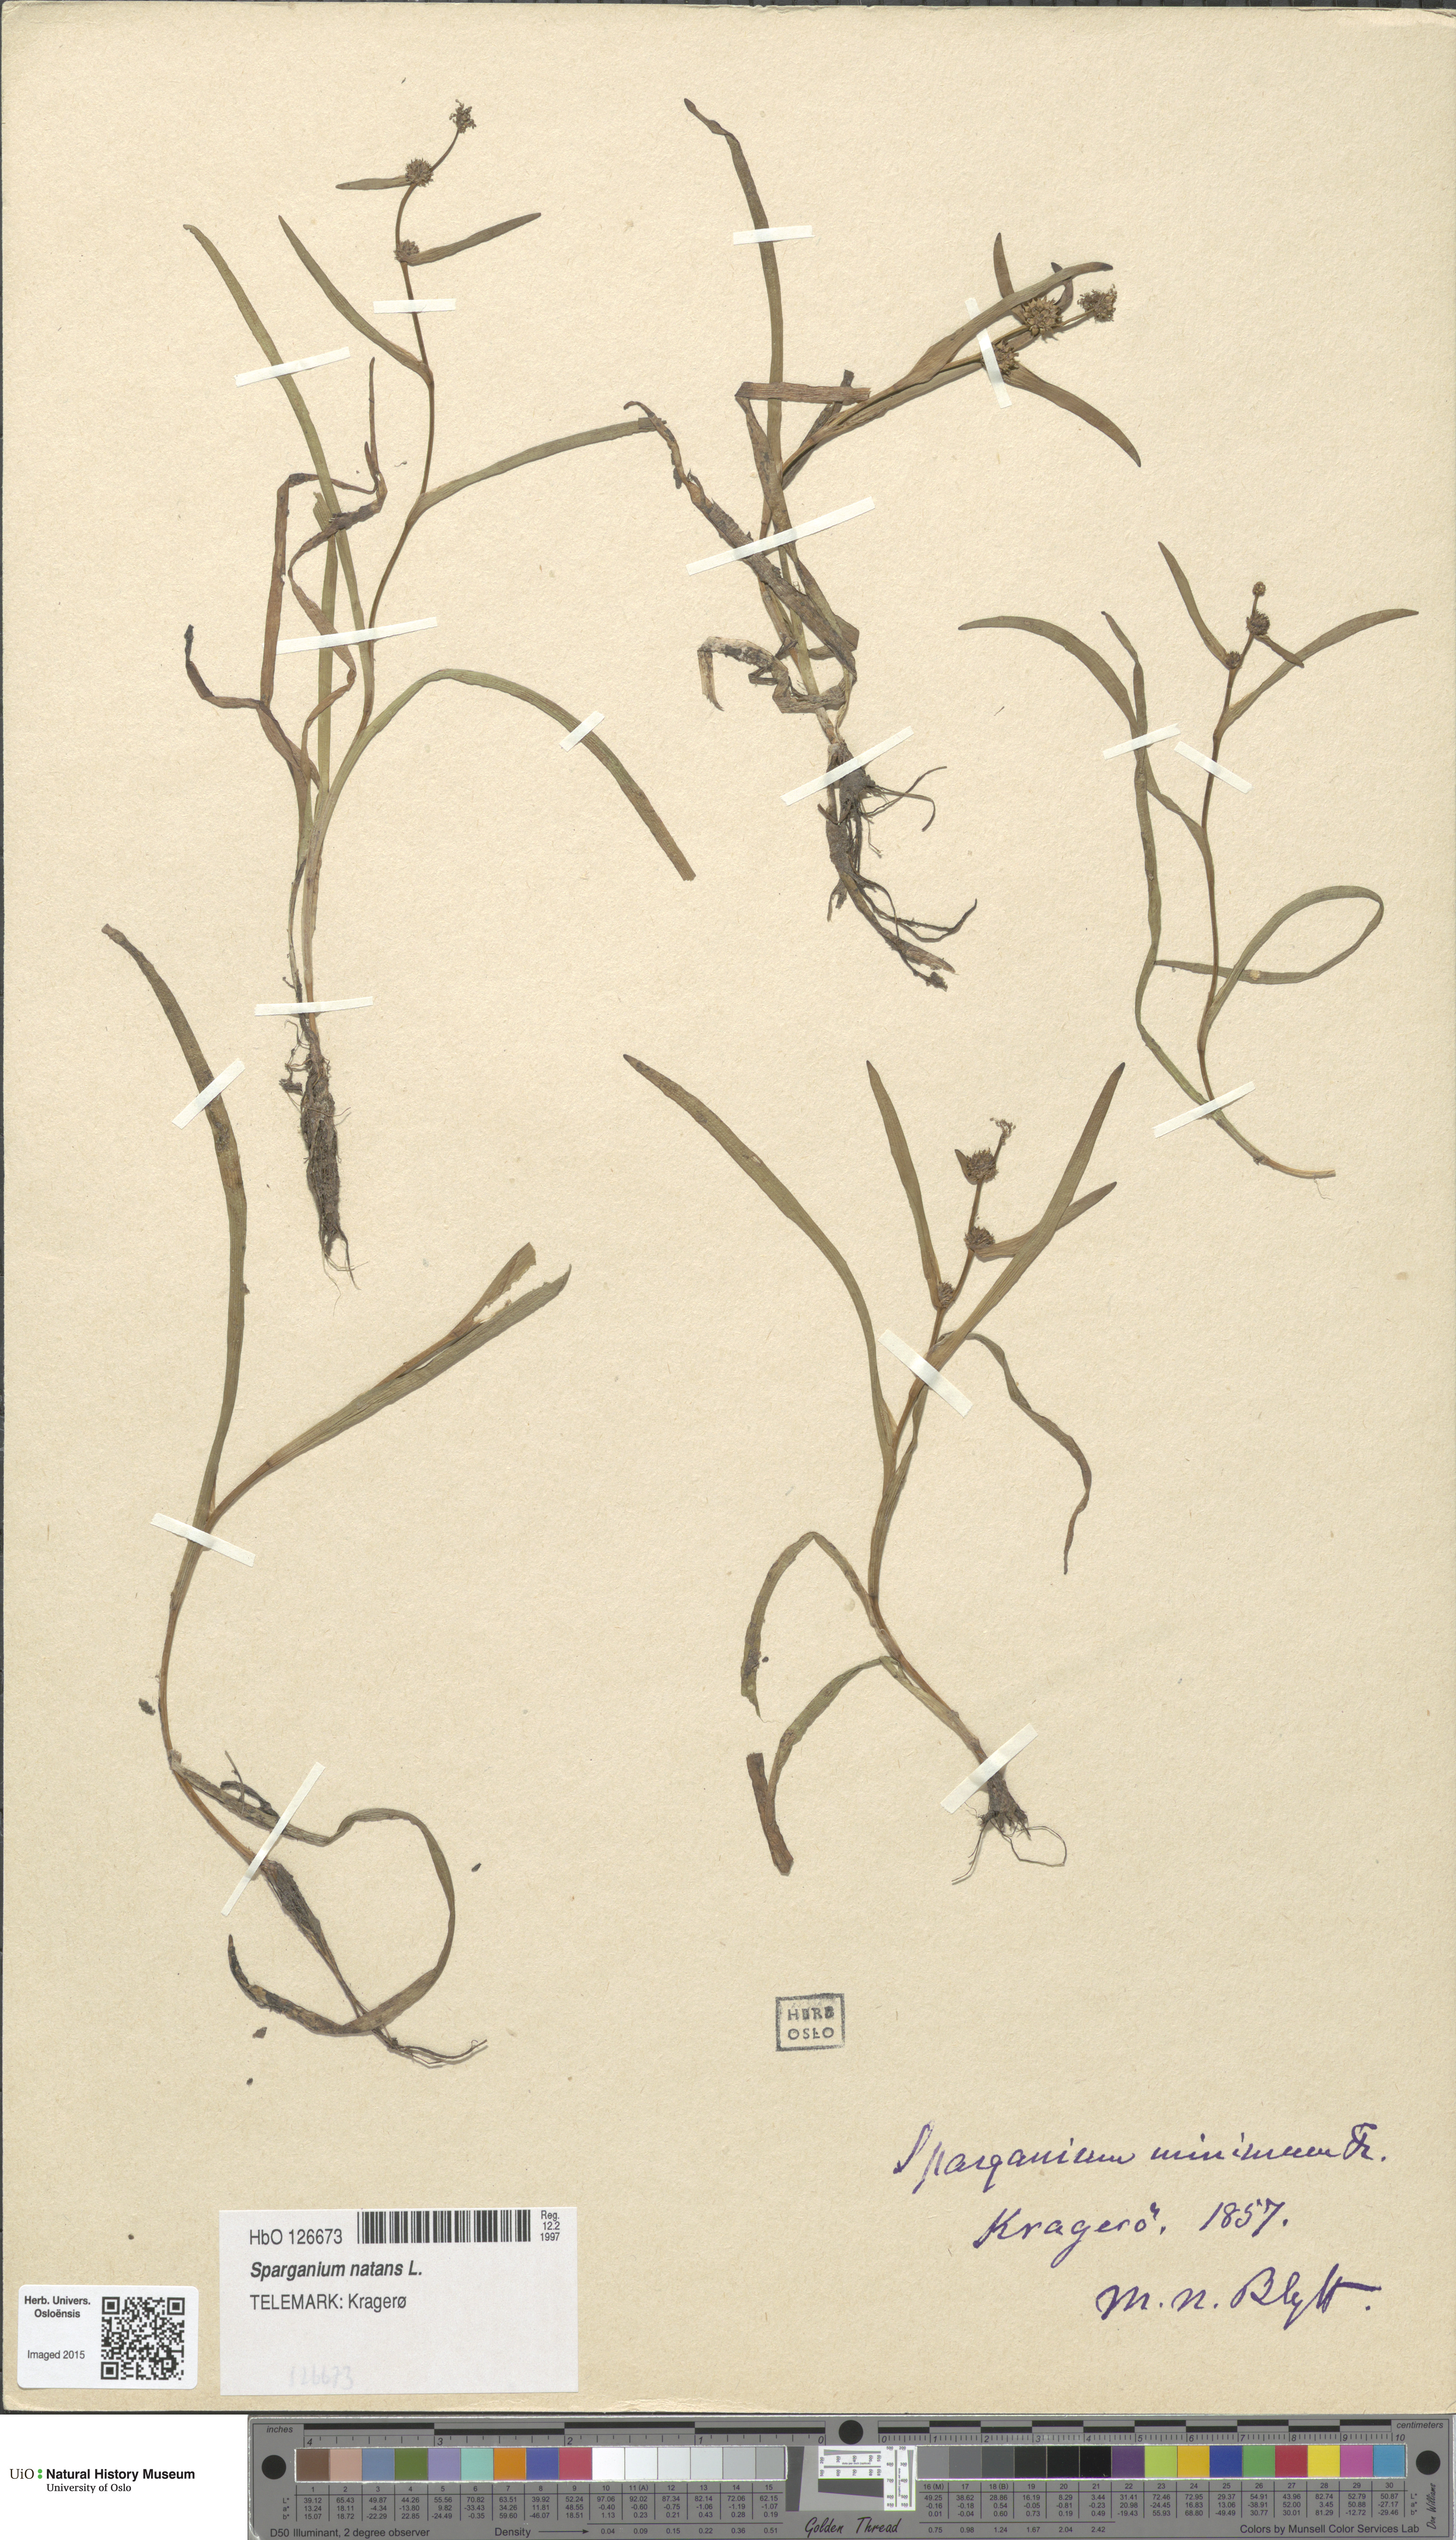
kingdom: Plantae
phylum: Tracheophyta
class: Liliopsida
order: Poales
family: Typhaceae
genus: Sparganium
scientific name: Sparganium natans
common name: Least bur-reed
